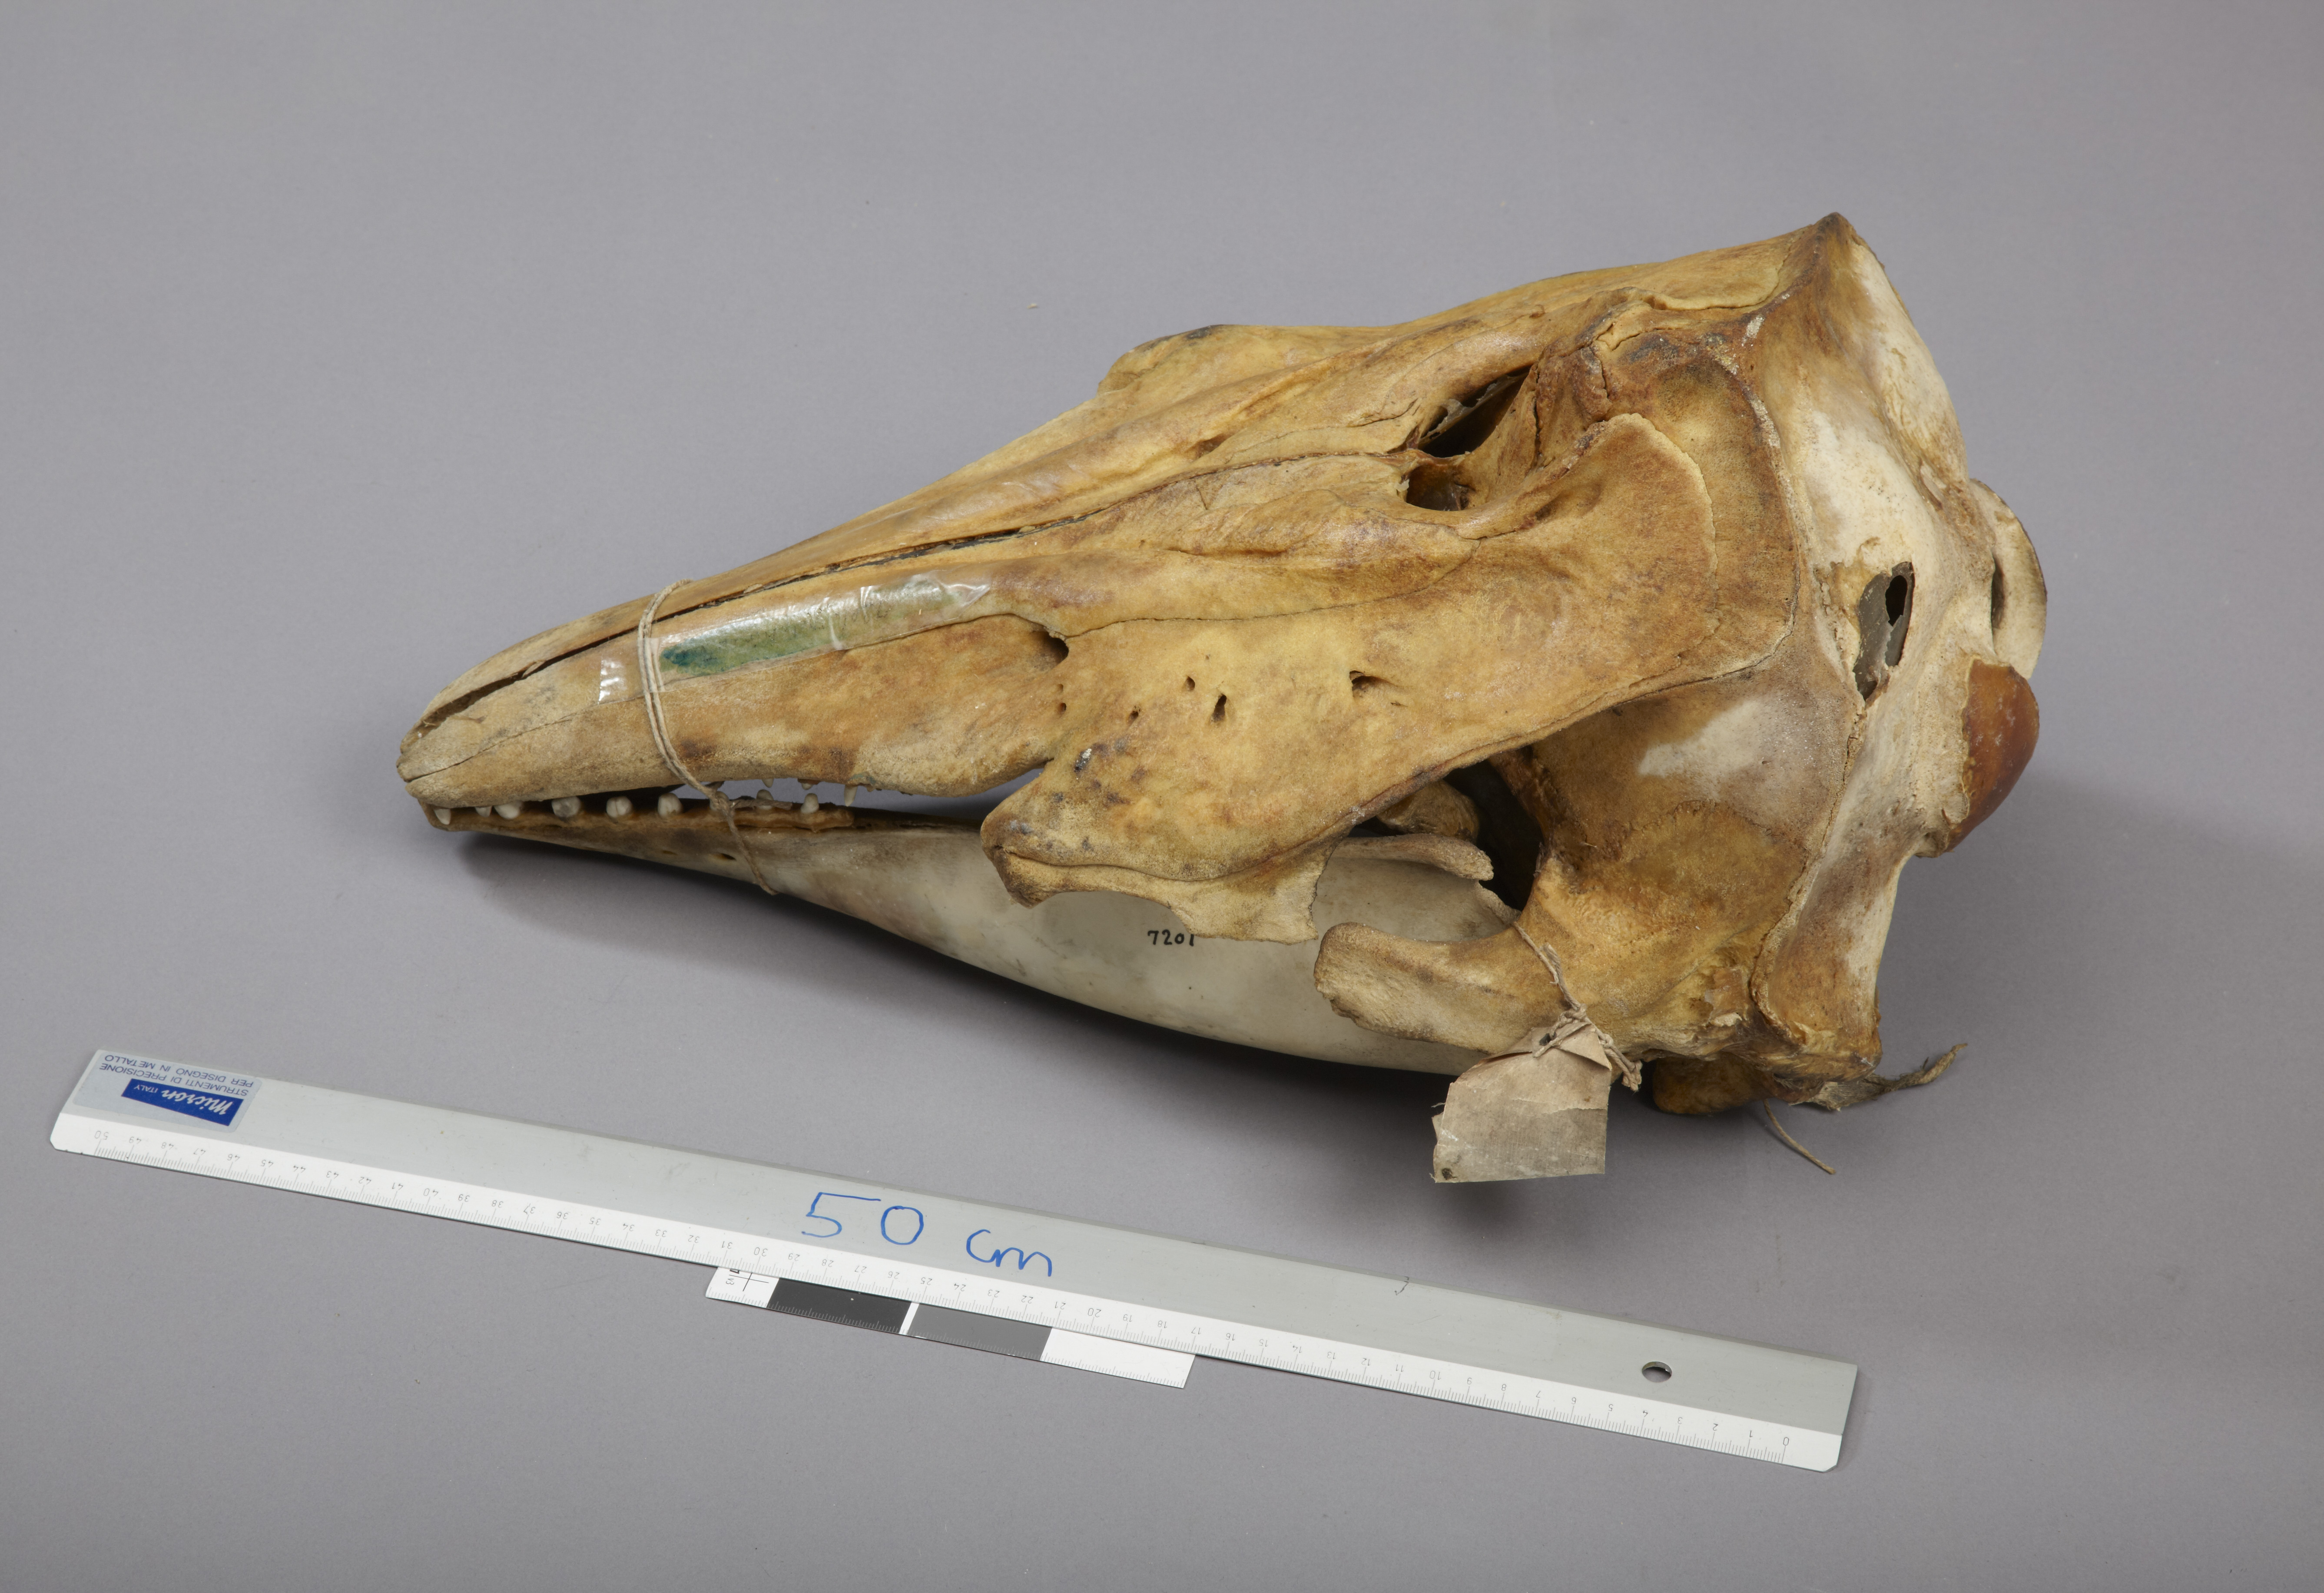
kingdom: Animalia
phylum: Chordata
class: Mammalia
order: Cetacea
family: Monodontidae
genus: Delphinapterus
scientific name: Delphinapterus leucas
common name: Beluga
